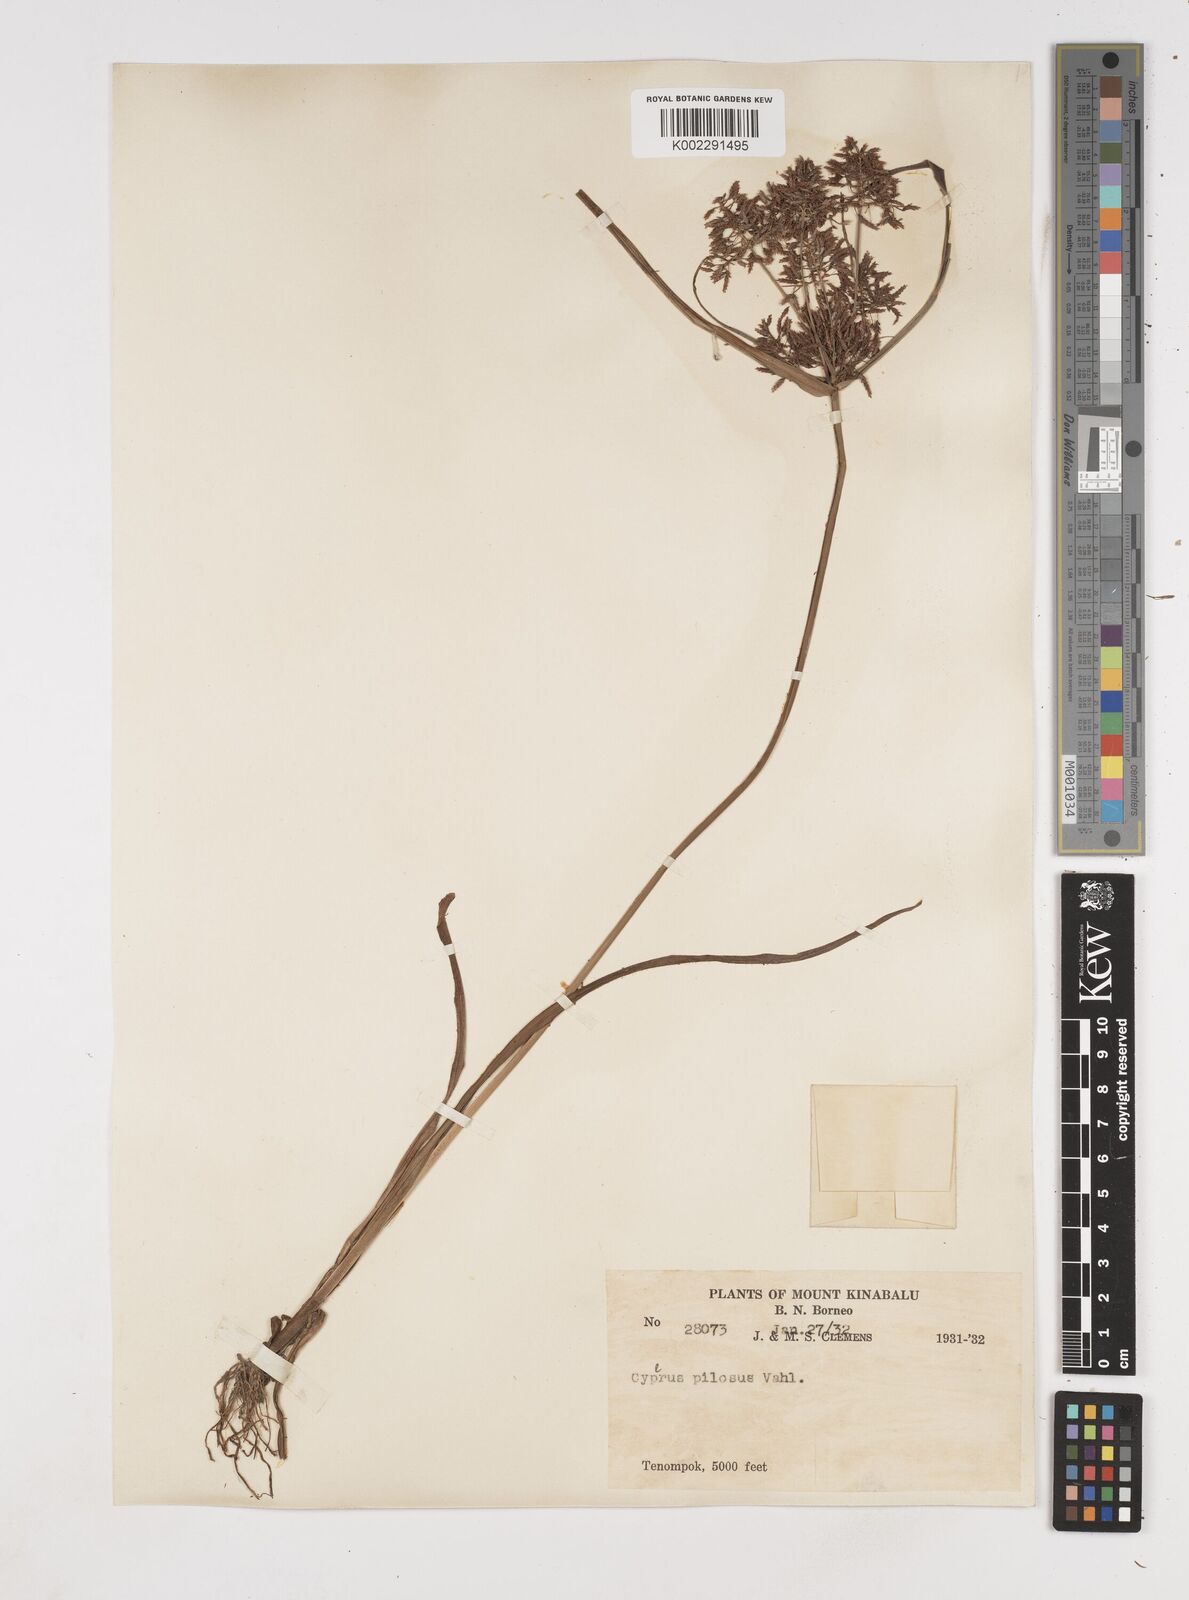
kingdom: Plantae
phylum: Tracheophyta
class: Liliopsida
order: Poales
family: Cyperaceae
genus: Cyperus
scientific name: Cyperus pilosus
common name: Fuzzy flatsedge
